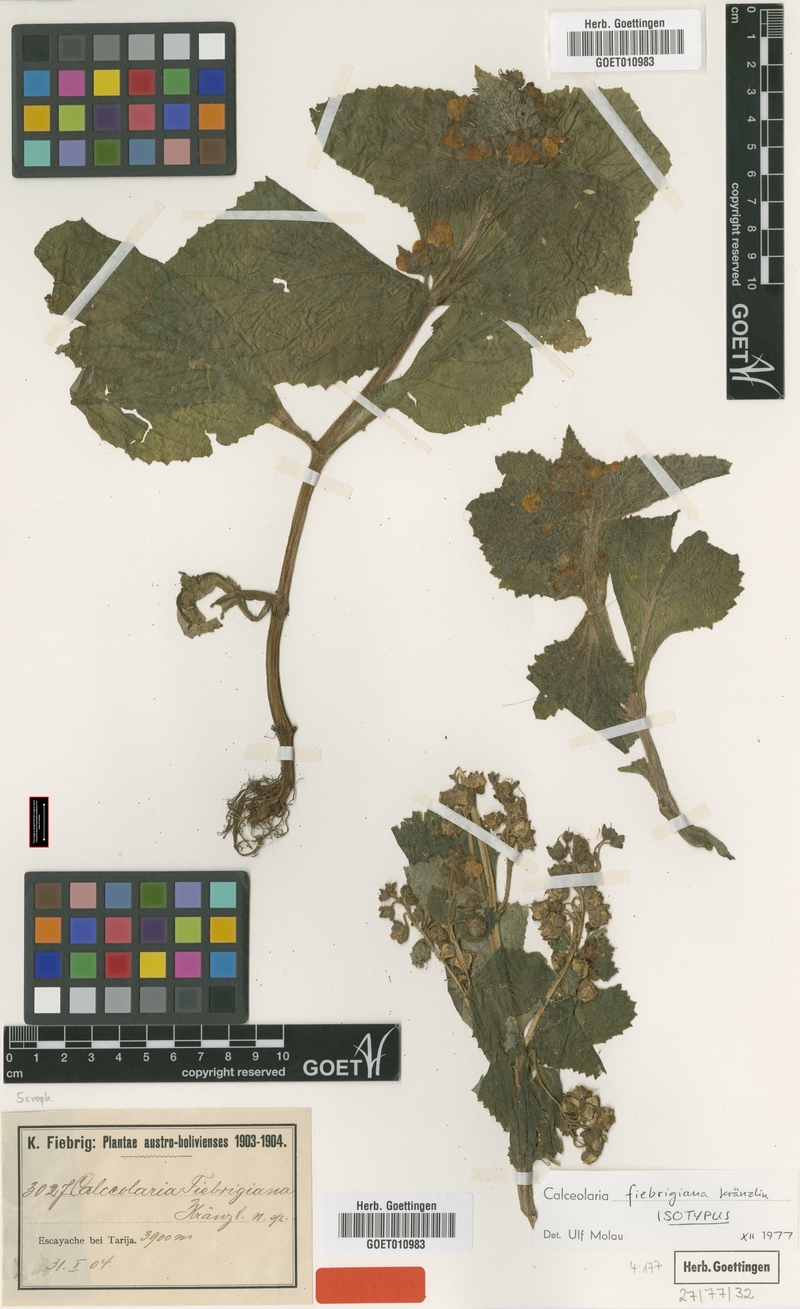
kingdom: Plantae
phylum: Tracheophyta
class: Magnoliopsida
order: Lamiales
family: Calceolariaceae
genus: Calceolaria
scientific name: Calceolaria plectranthifolia
